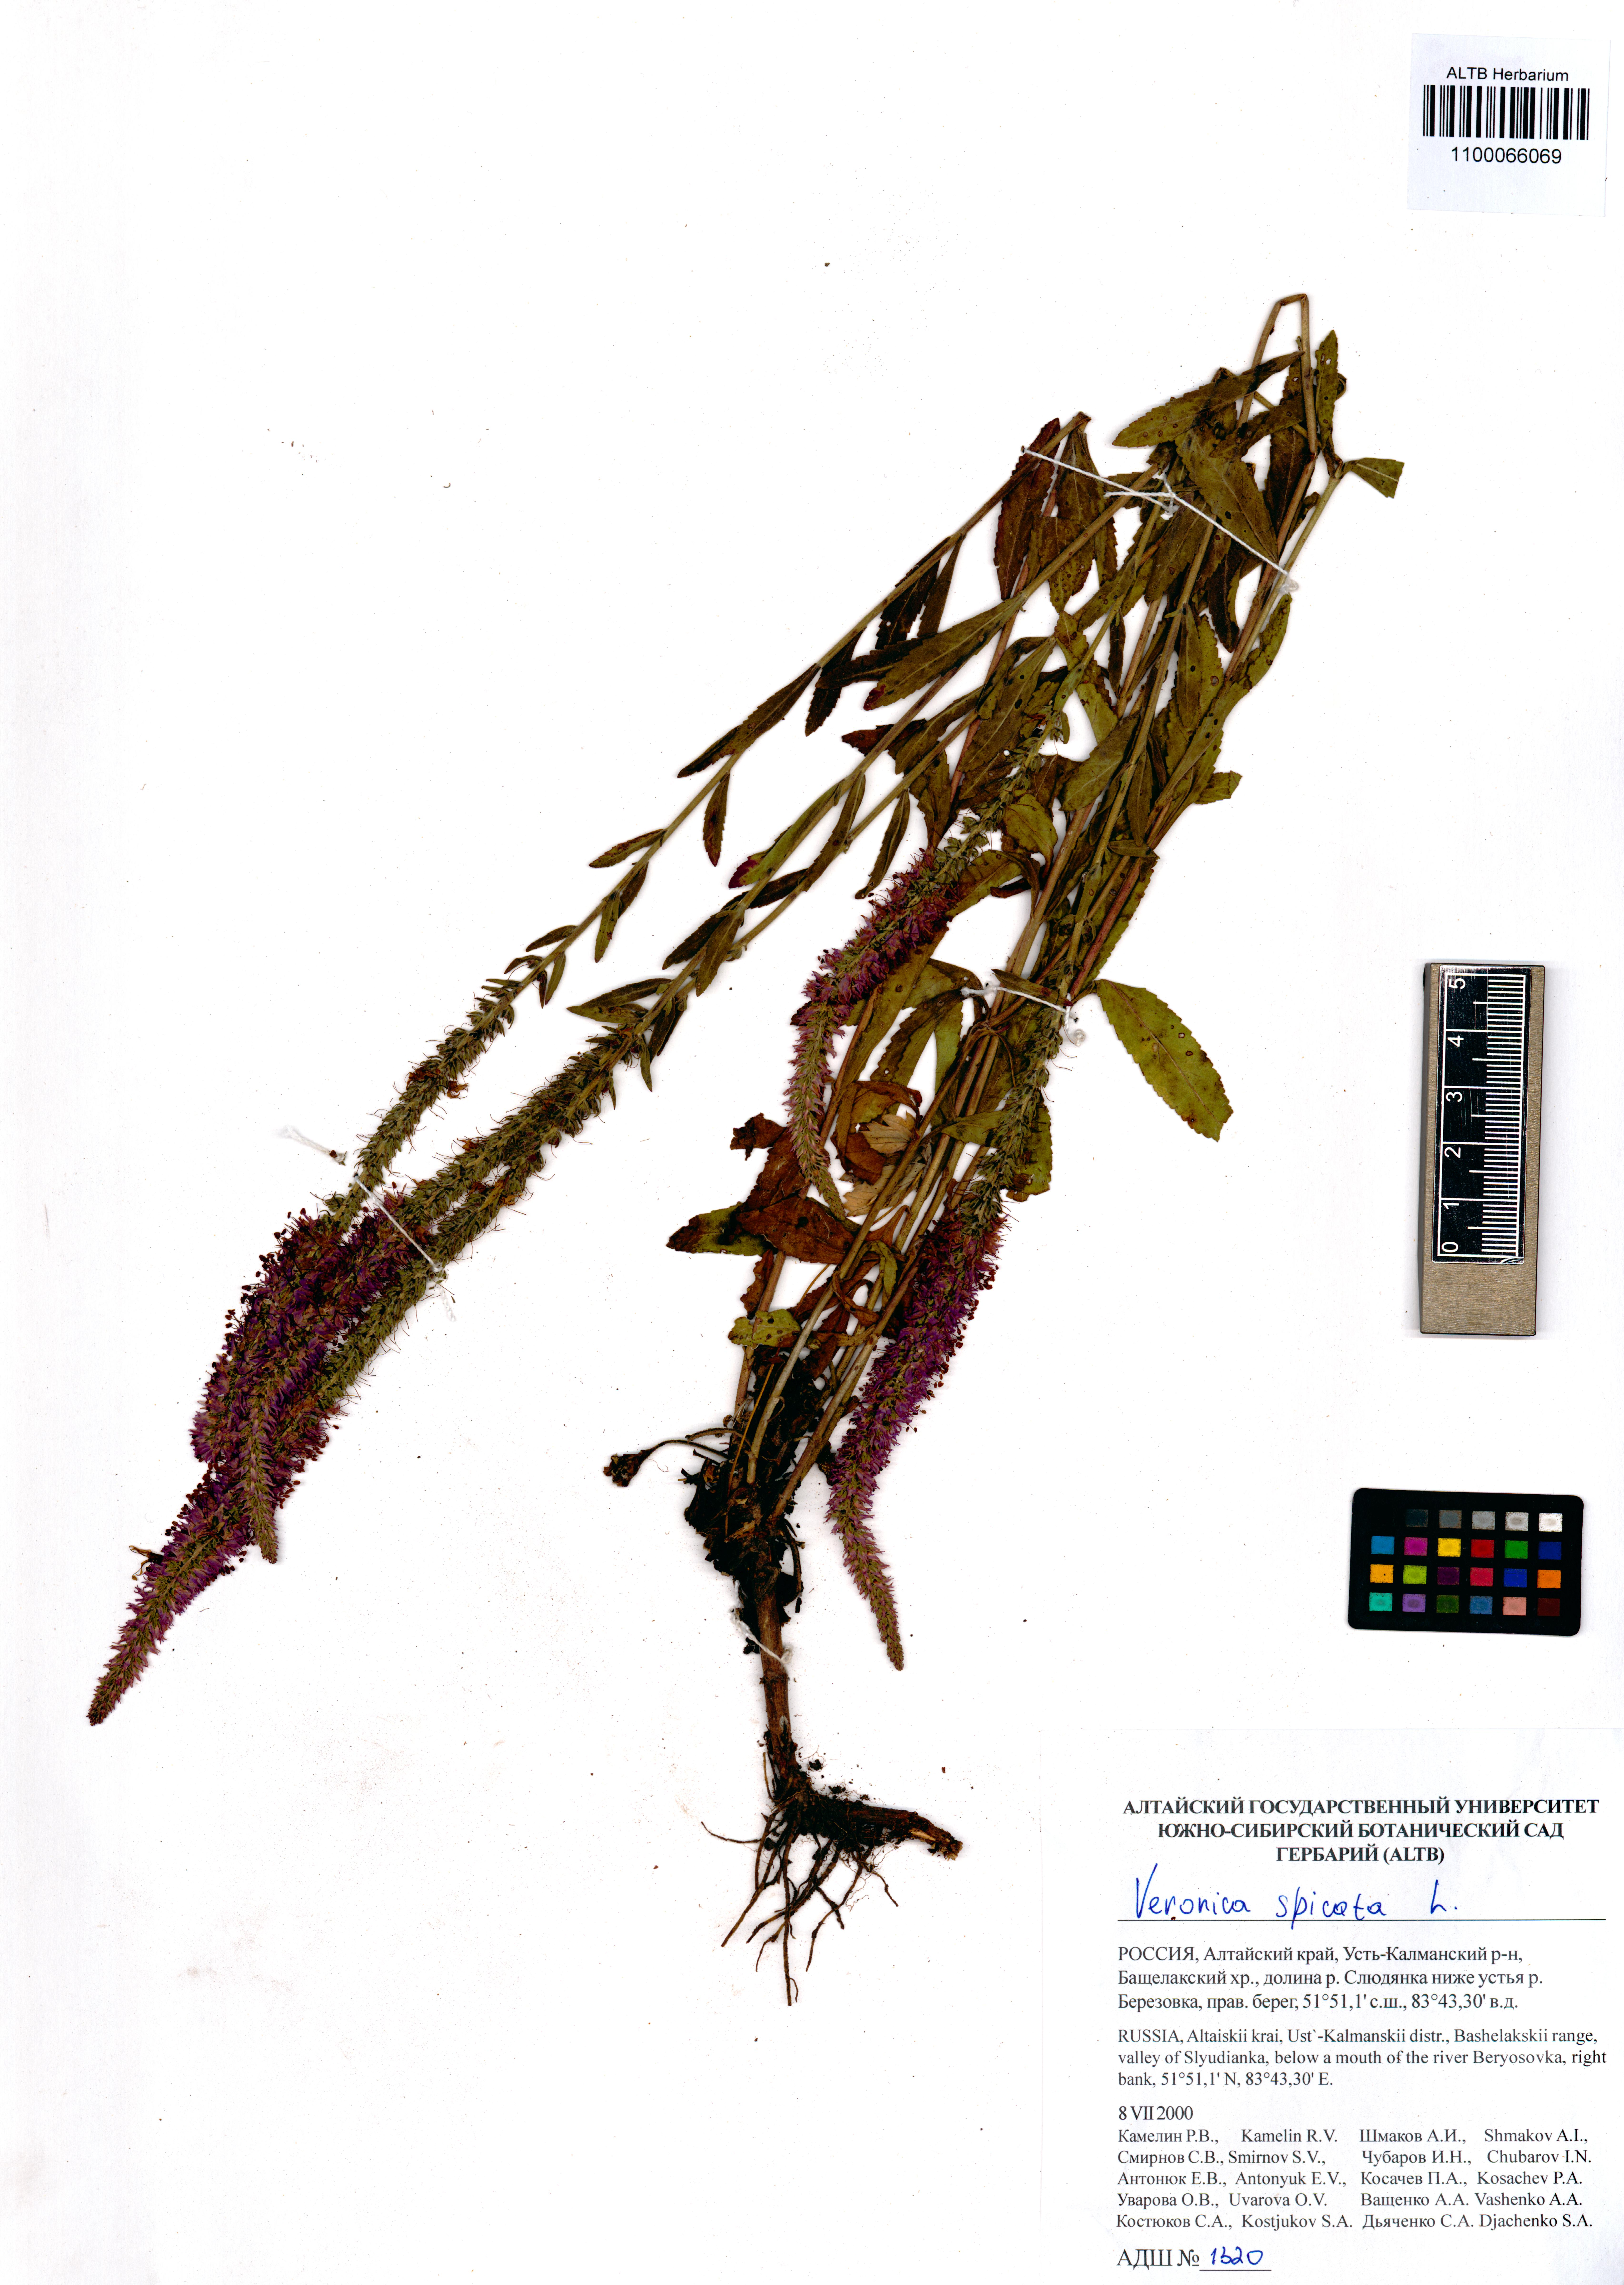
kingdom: Plantae
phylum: Tracheophyta
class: Magnoliopsida
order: Lamiales
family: Plantaginaceae
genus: Veronica
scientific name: Veronica spicata
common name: Spiked speedwell
